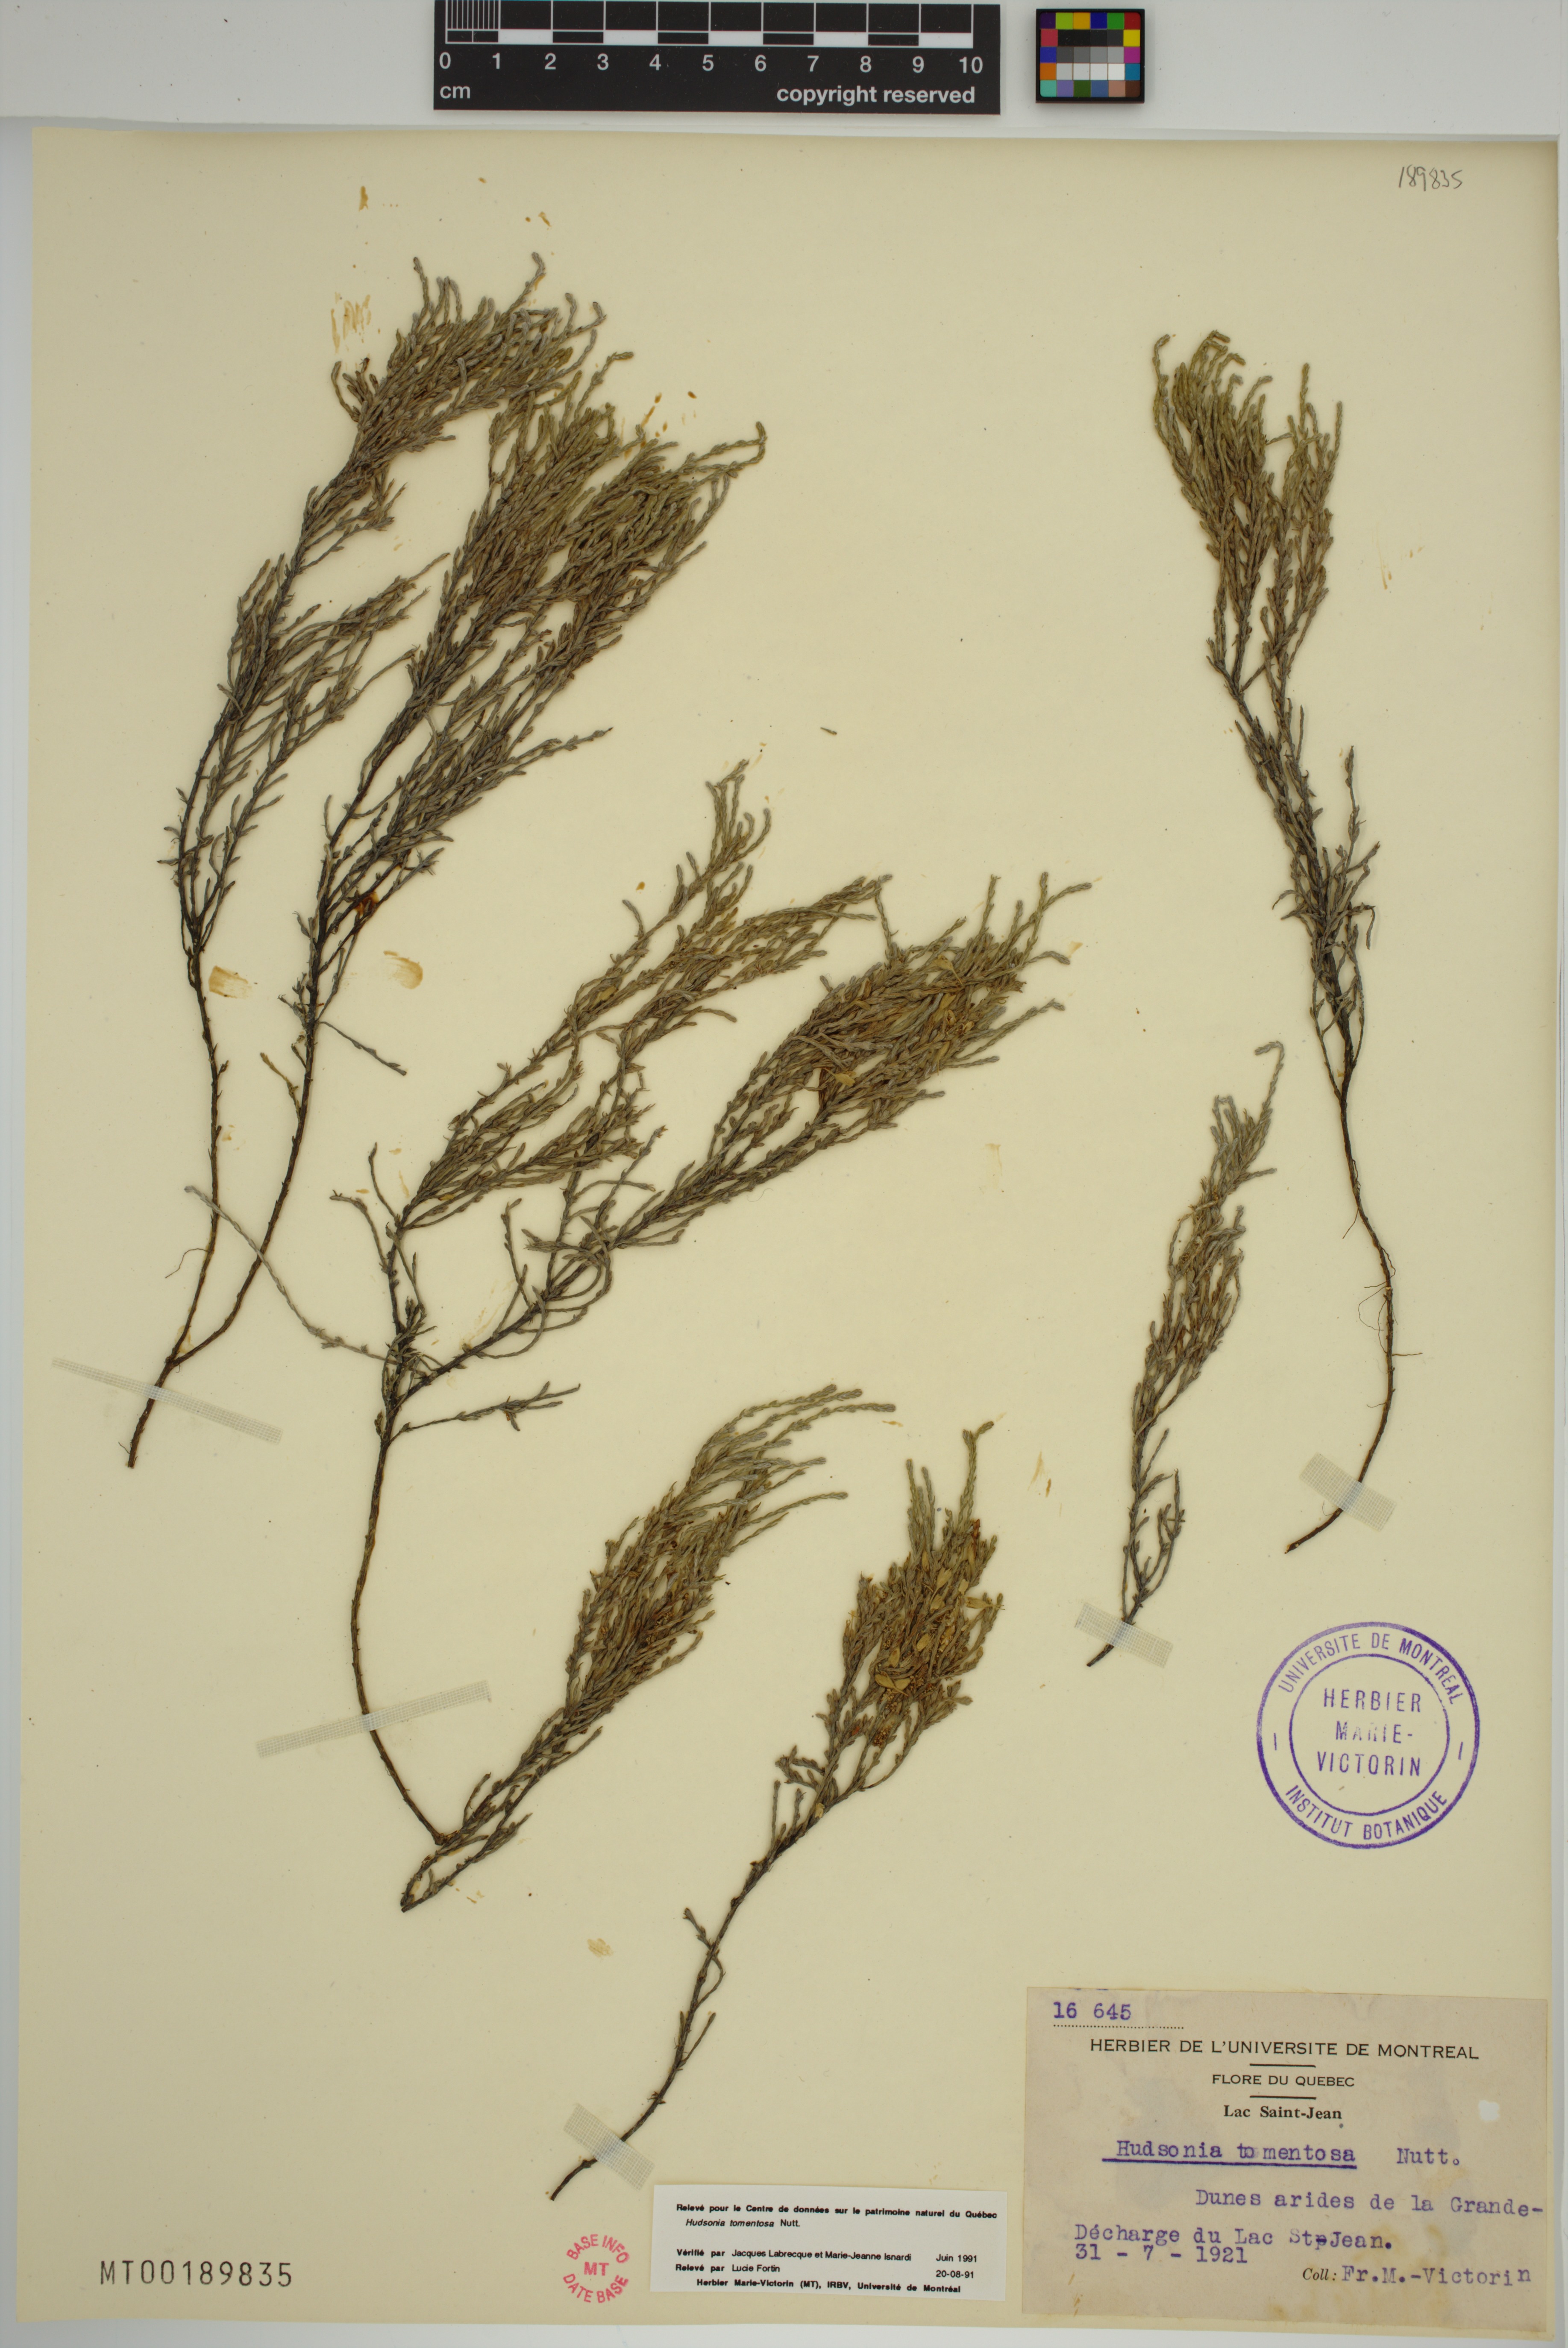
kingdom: Plantae
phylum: Tracheophyta
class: Magnoliopsida
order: Malvales
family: Cistaceae
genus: Hudsonia
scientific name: Hudsonia tomentosa
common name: Beach-heath
